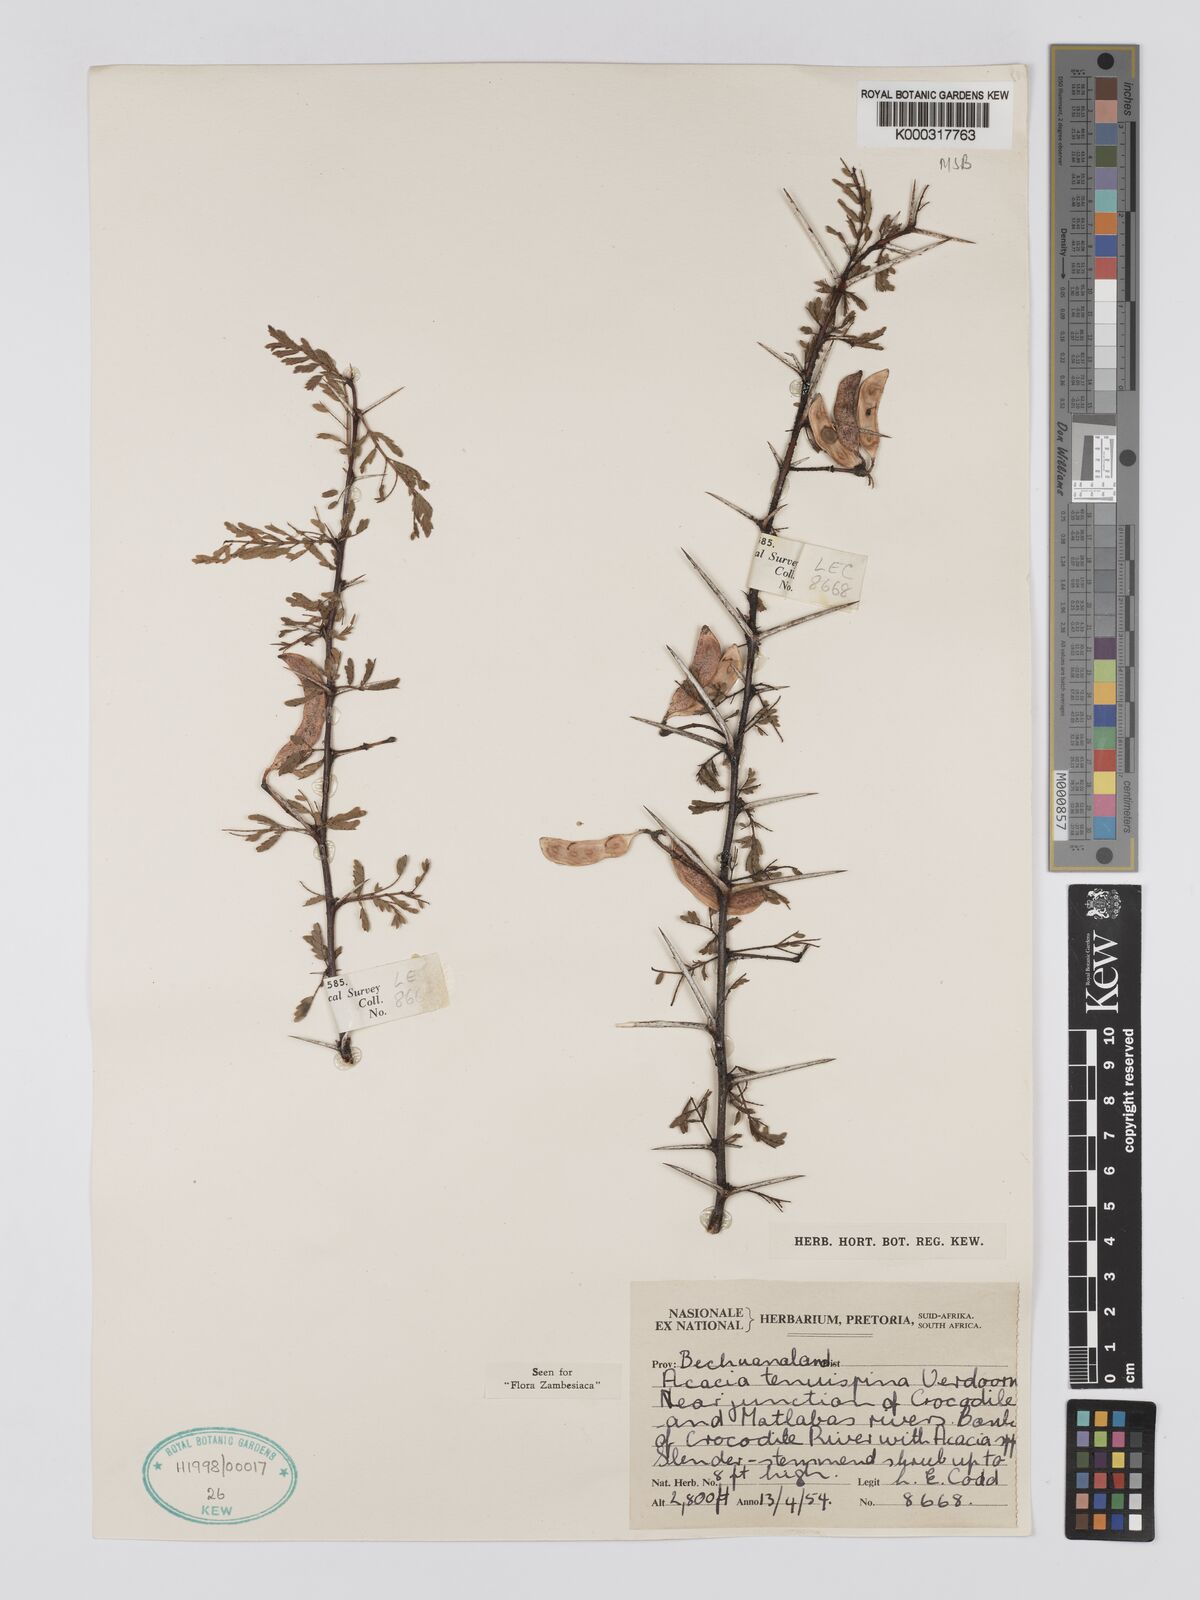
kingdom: Plantae
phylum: Tracheophyta
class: Magnoliopsida
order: Fabales
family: Fabaceae
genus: Vachellia
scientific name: Vachellia tenuispina
